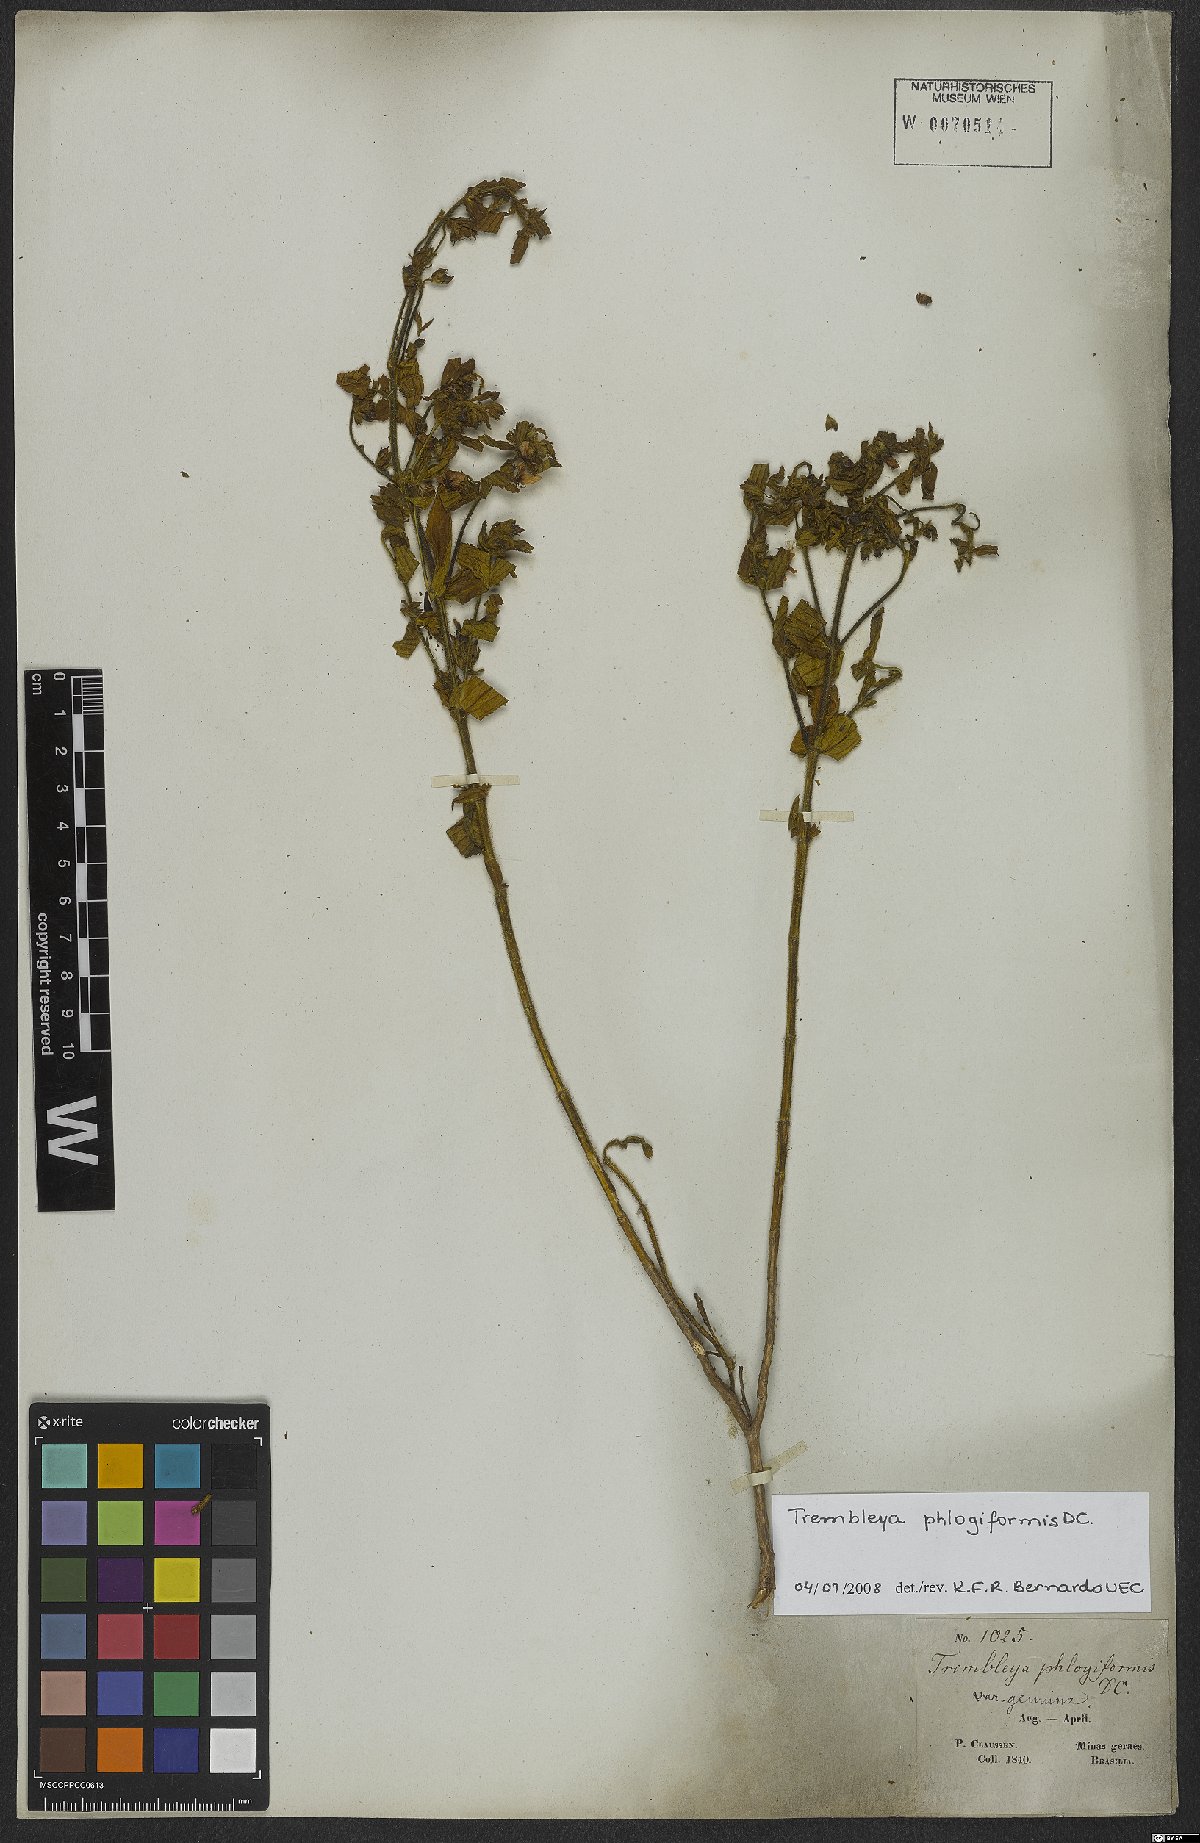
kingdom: Plantae
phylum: Tracheophyta
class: Magnoliopsida
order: Myrtales
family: Melastomataceae
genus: Microlicia
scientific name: Microlicia phlogiformis
